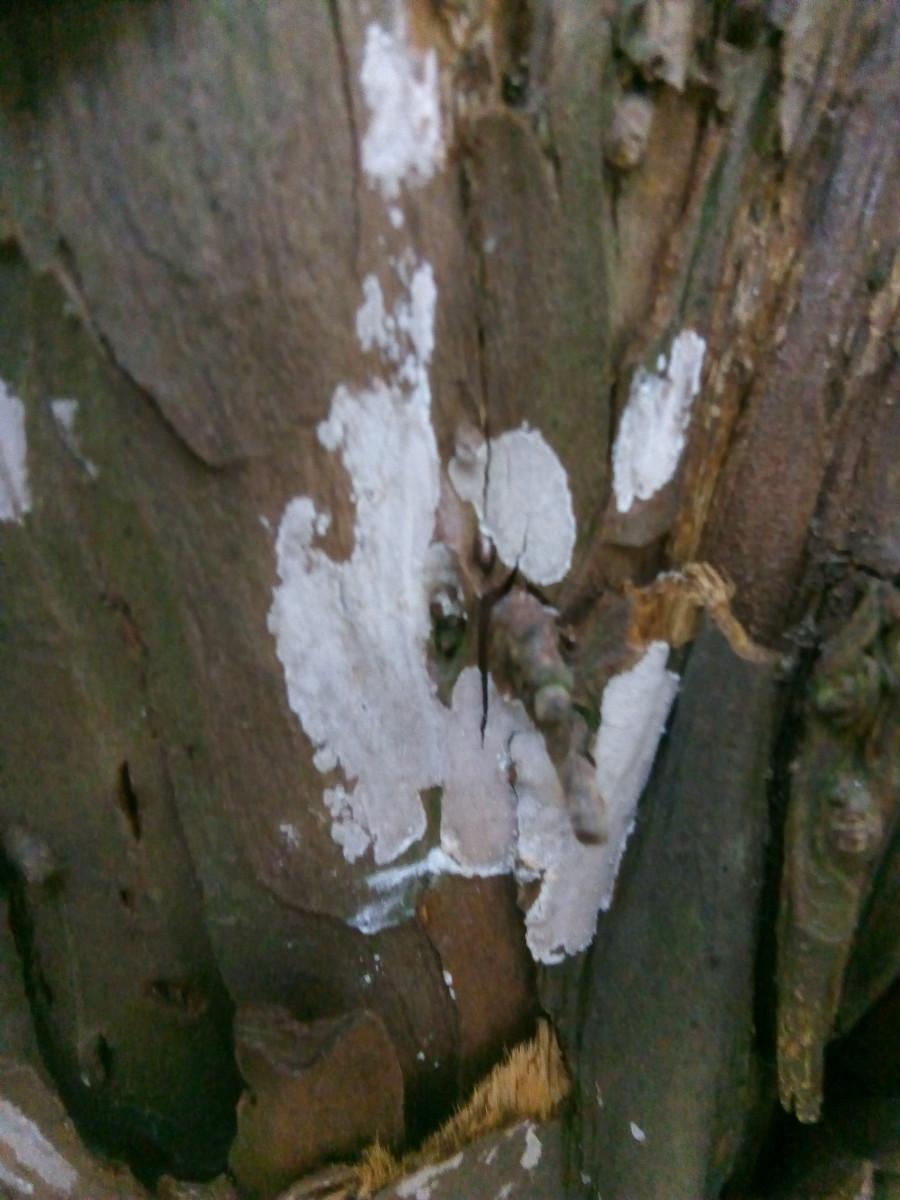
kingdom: Fungi
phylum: Basidiomycota
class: Agaricomycetes
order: Russulales
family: Echinodontiaceae
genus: Amylostereum
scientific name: Amylostereum laevigatum
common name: ene-lædersvamp
